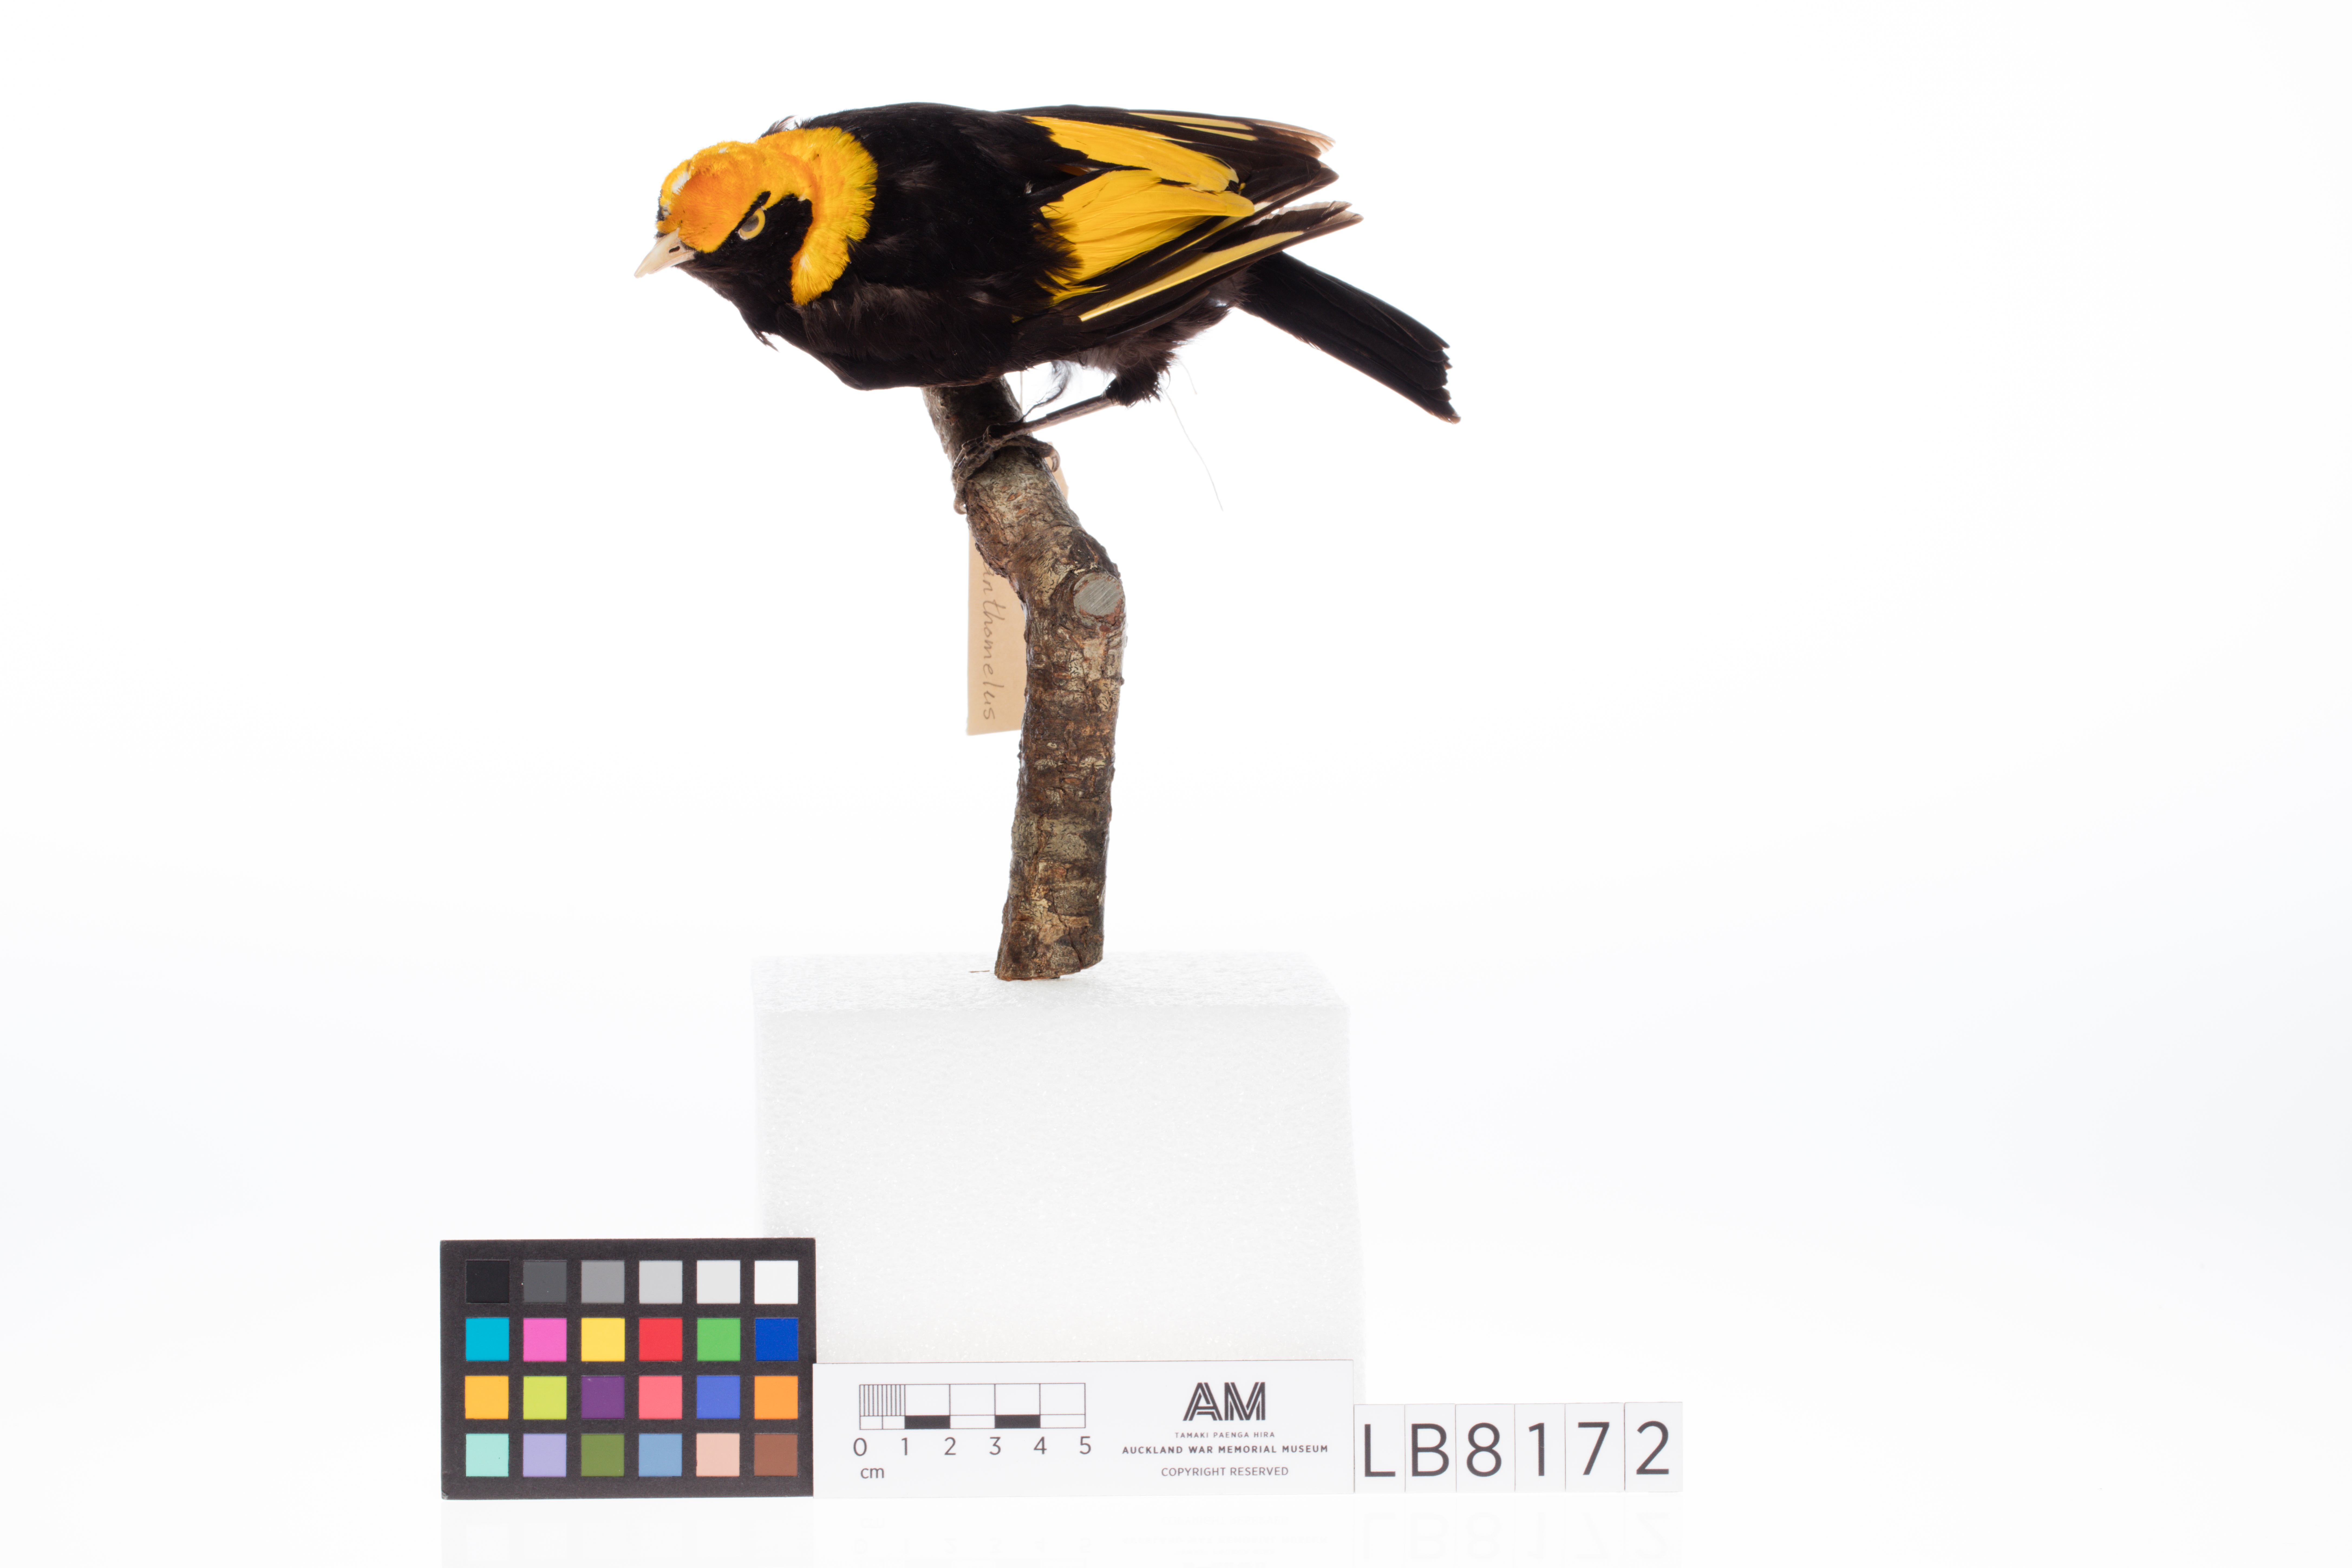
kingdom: Animalia
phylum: Chordata
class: Aves
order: Passeriformes
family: Ptilonorhynchidae
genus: Sericulus
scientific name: Sericulus chrysocephalus
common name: Regent bowerbird
